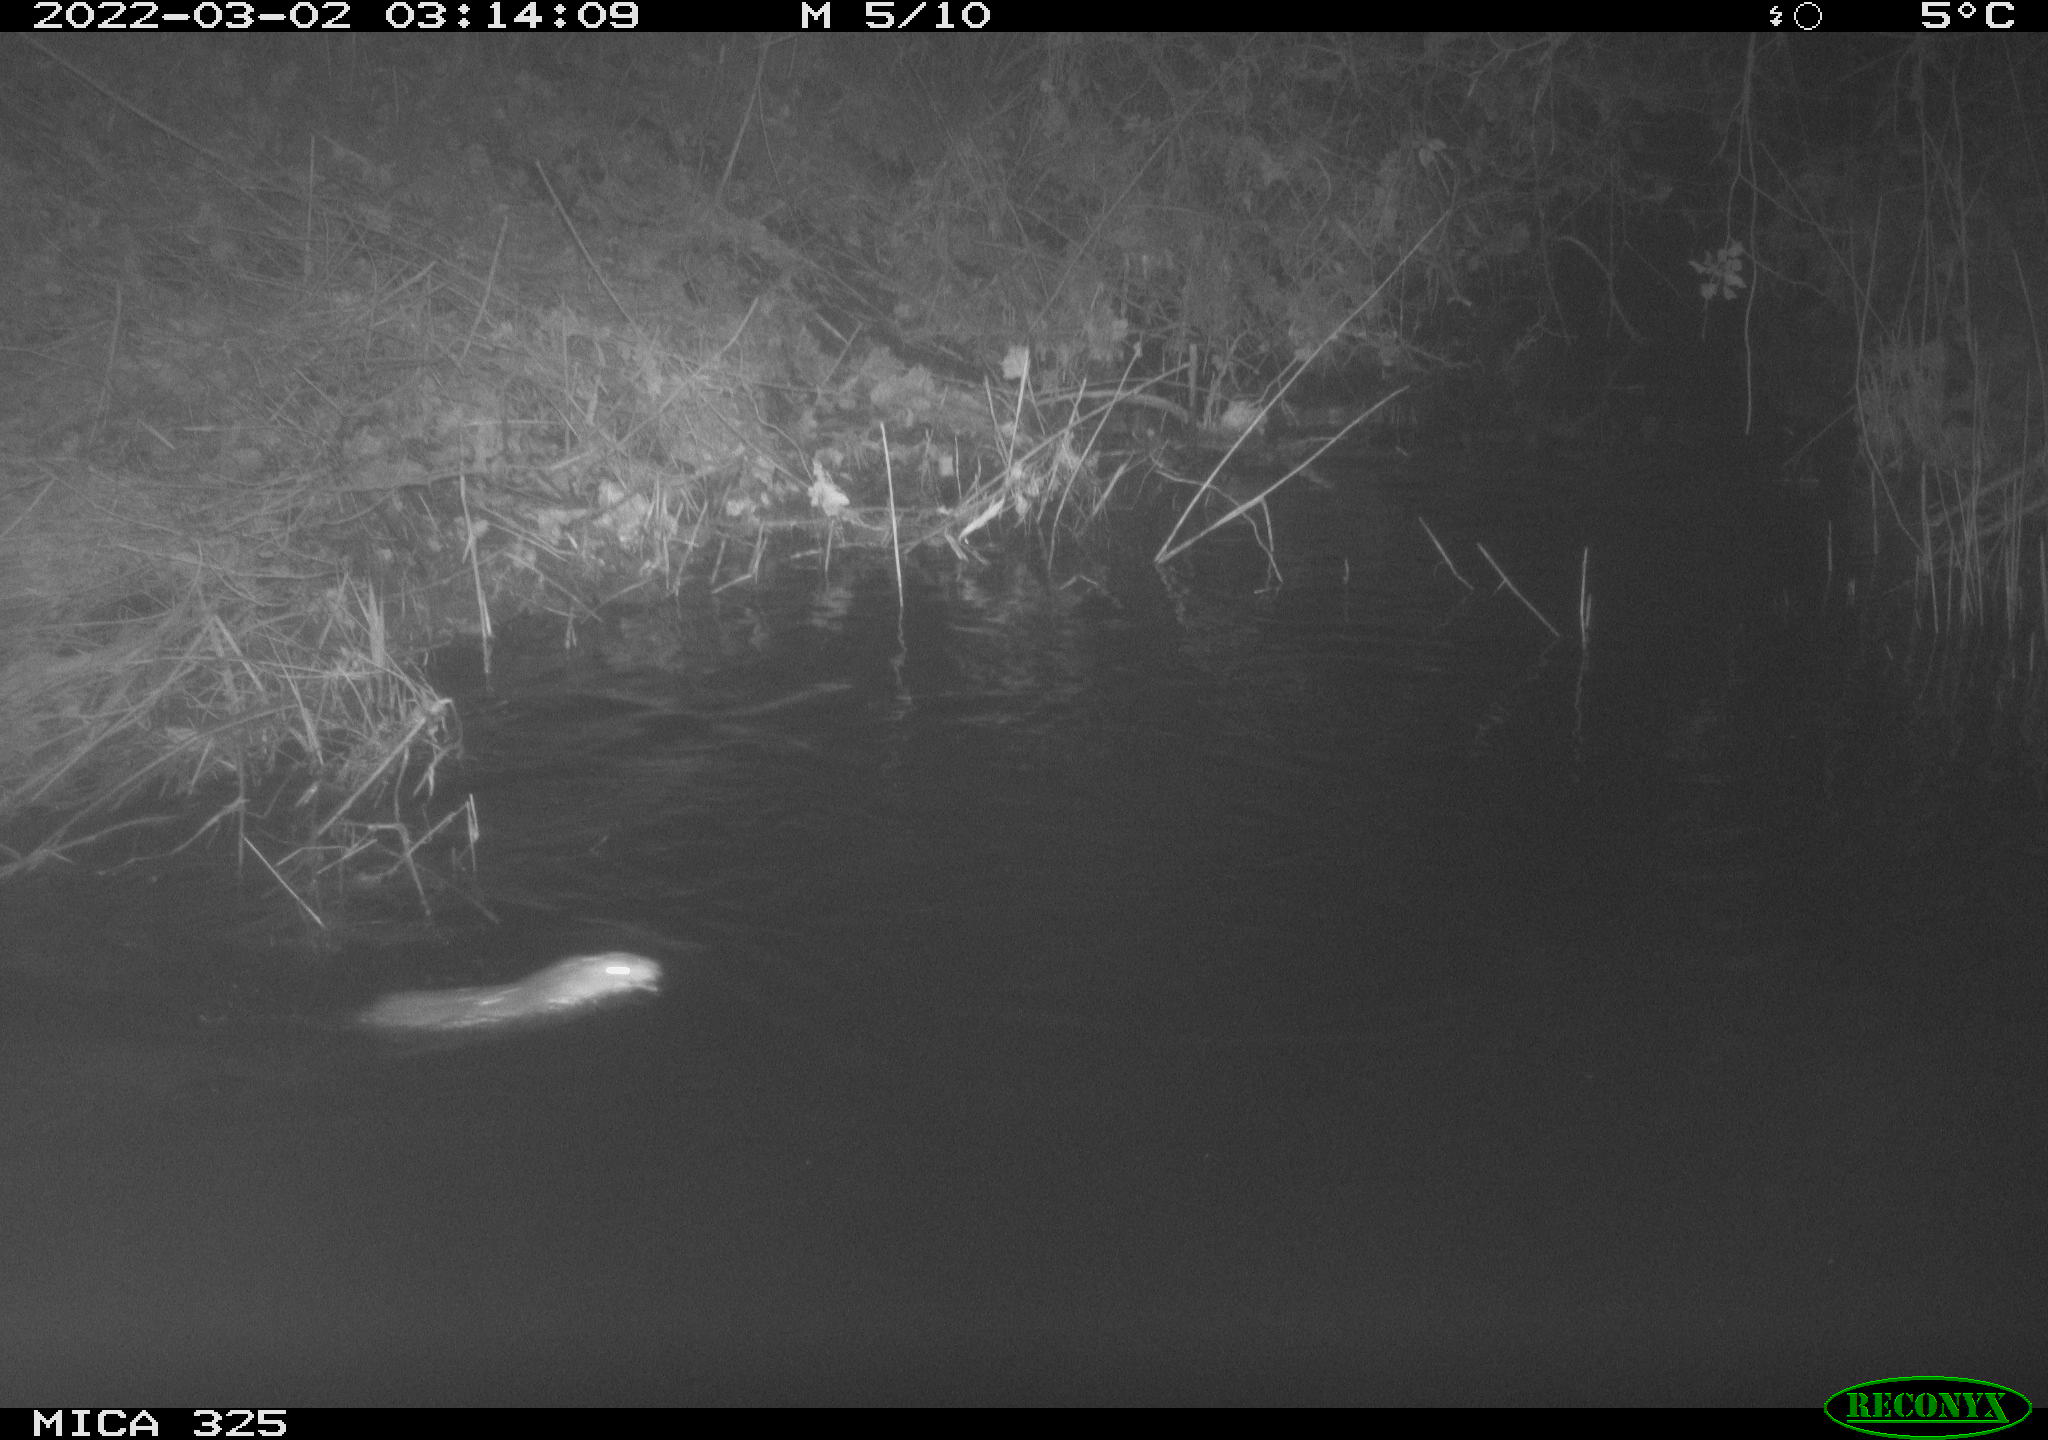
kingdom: Animalia
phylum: Chordata
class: Mammalia
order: Rodentia
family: Cricetidae
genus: Ondatra
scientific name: Ondatra zibethicus
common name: Muskrat
